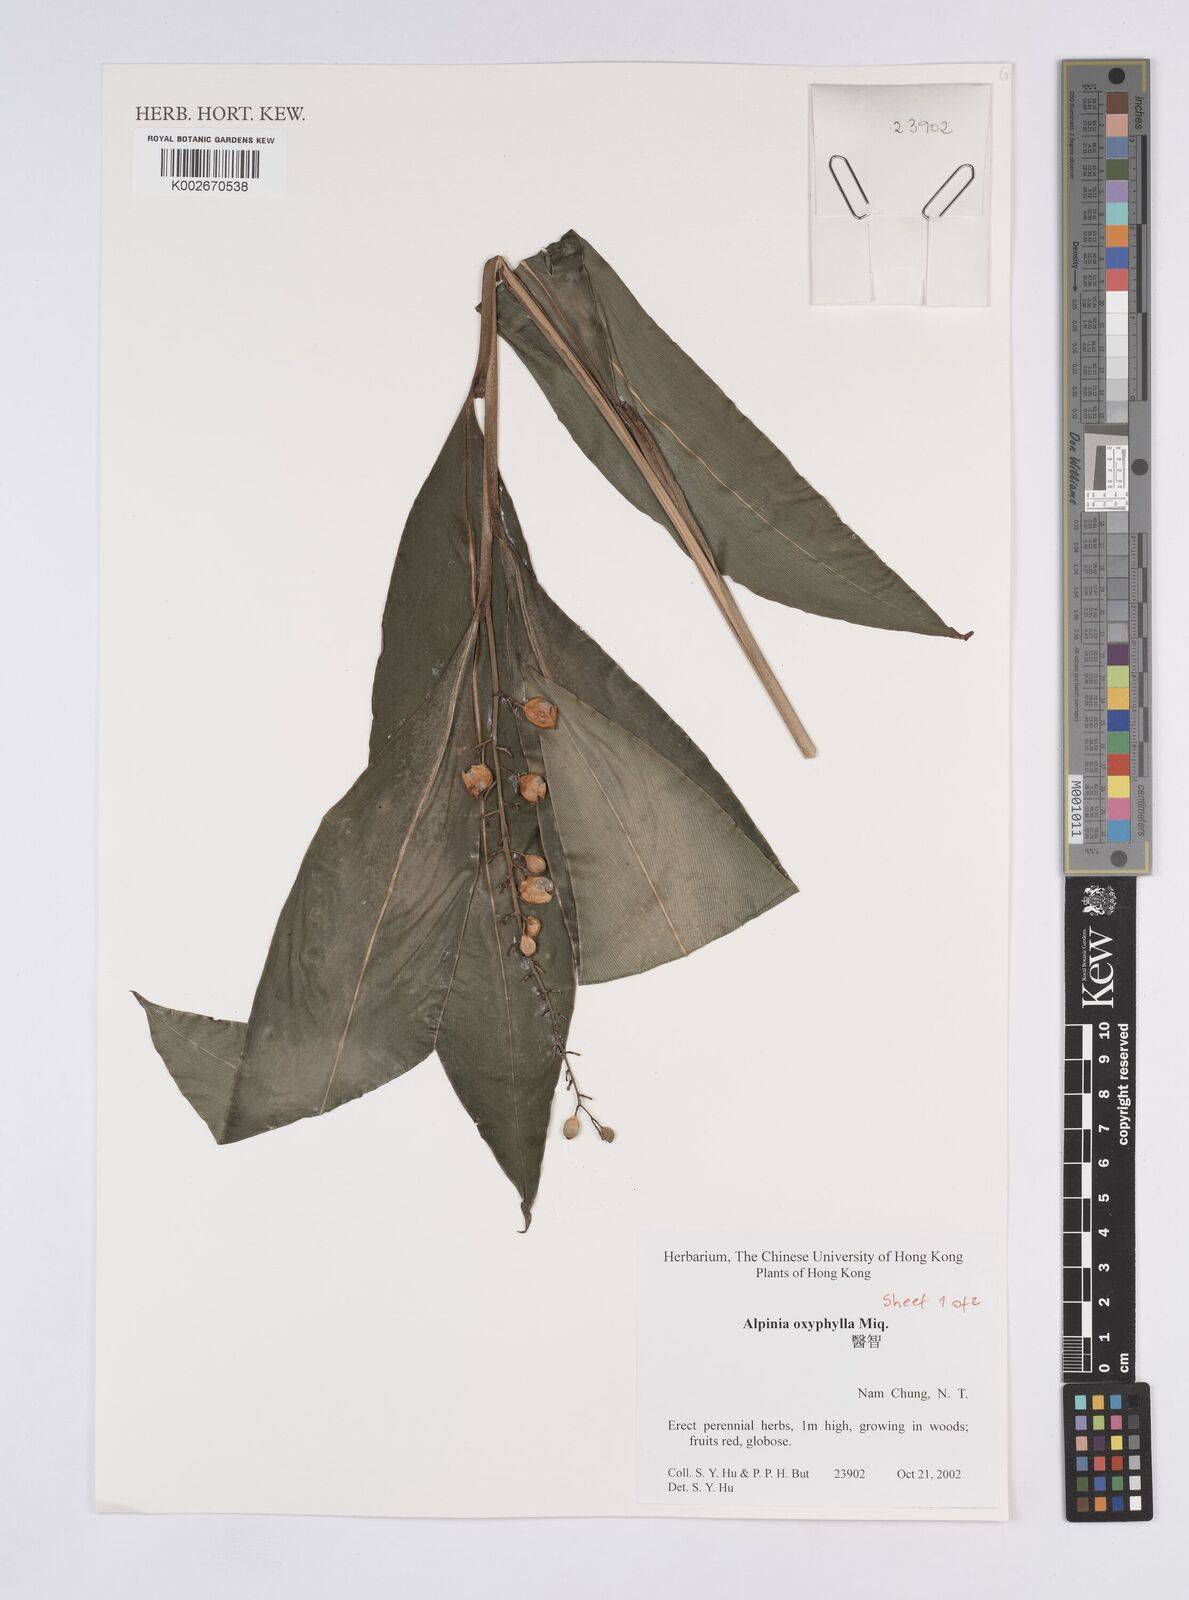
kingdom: Plantae
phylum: Tracheophyta
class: Liliopsida
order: Zingiberales
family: Zingiberaceae
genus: Alpinia
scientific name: Alpinia oxyphylla
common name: Sharp-leaf galangal
